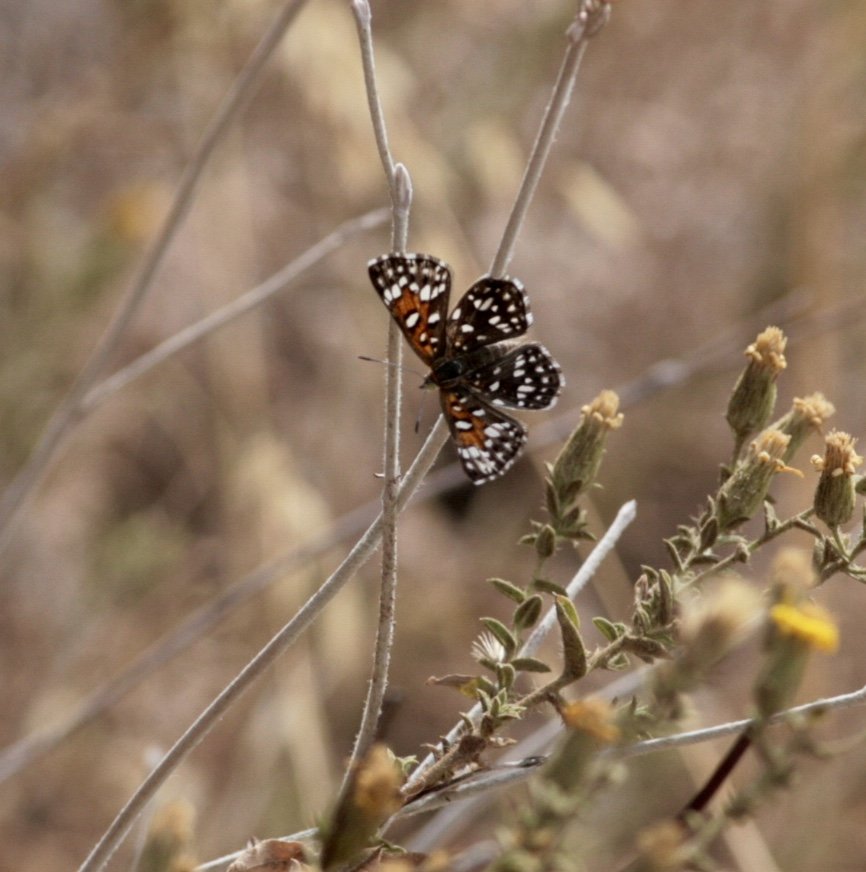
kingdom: Animalia
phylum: Arthropoda
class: Insecta
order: Lepidoptera
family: Riodinidae
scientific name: Riodinidae
